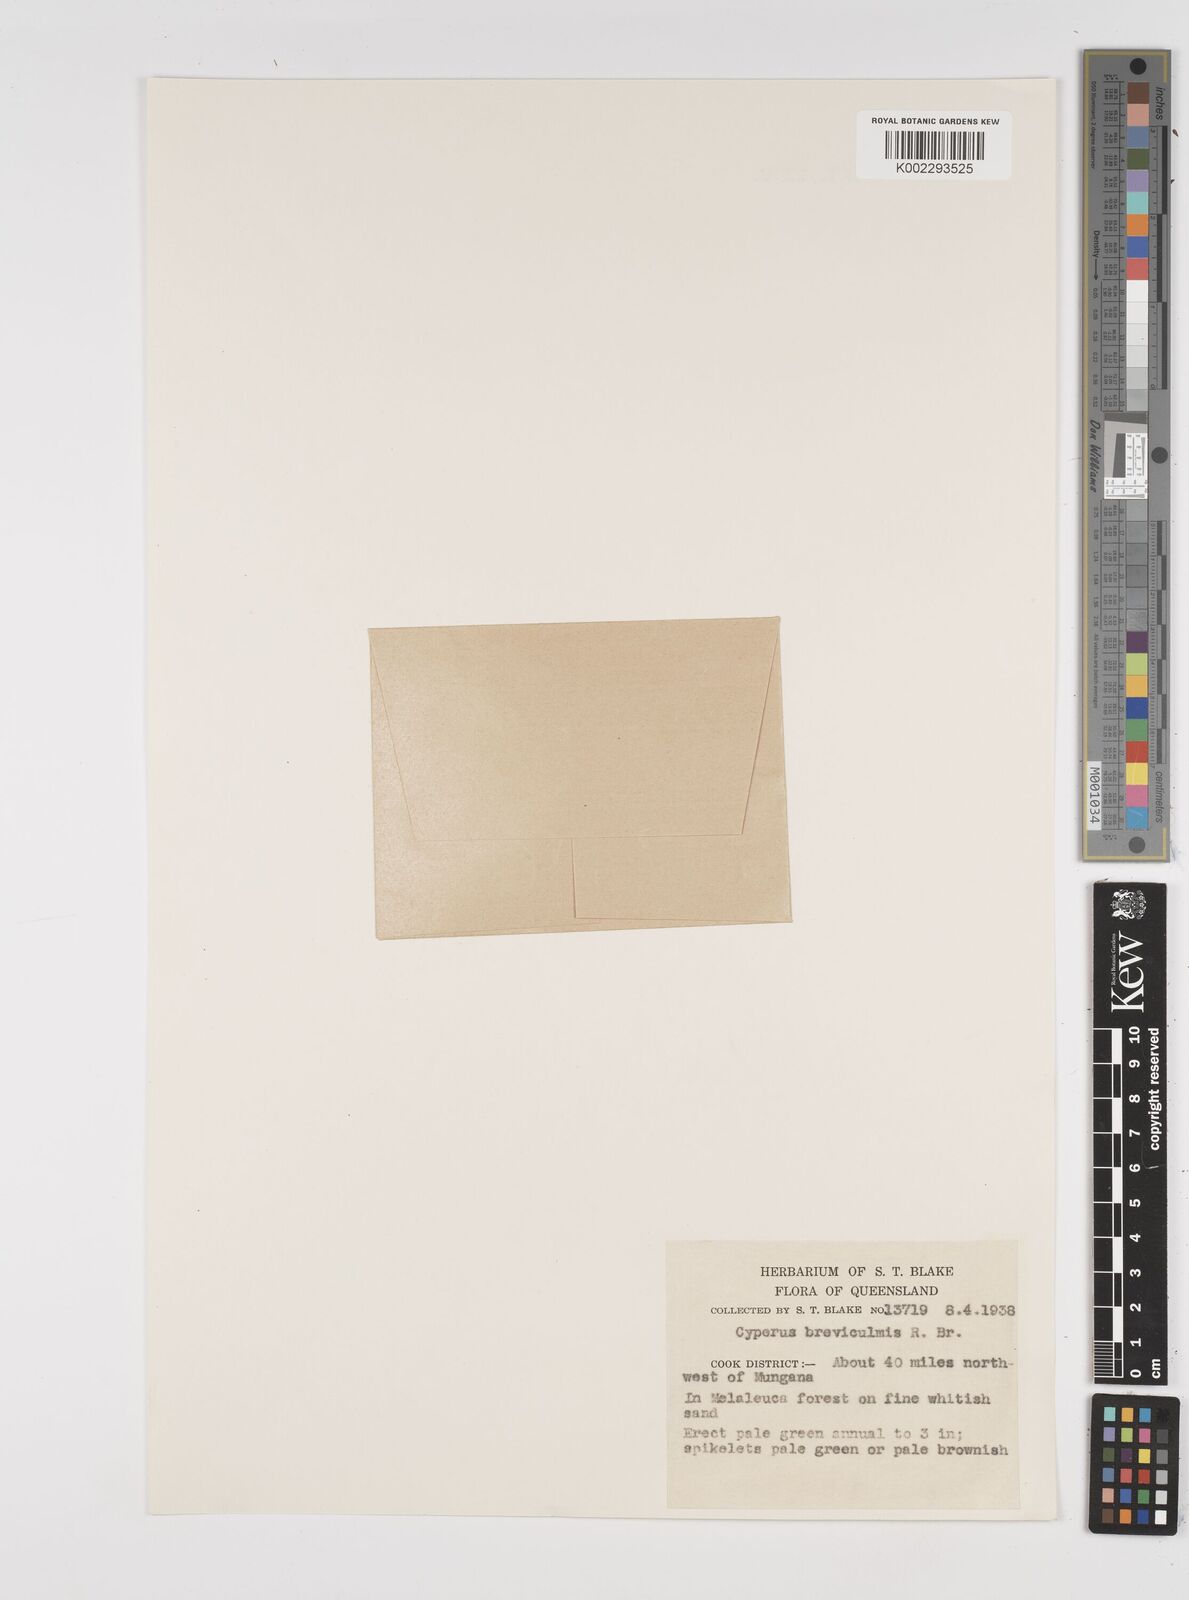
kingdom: Plantae
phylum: Tracheophyta
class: Liliopsida
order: Poales
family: Cyperaceae
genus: Cyperus
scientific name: Cyperus breviculmis
